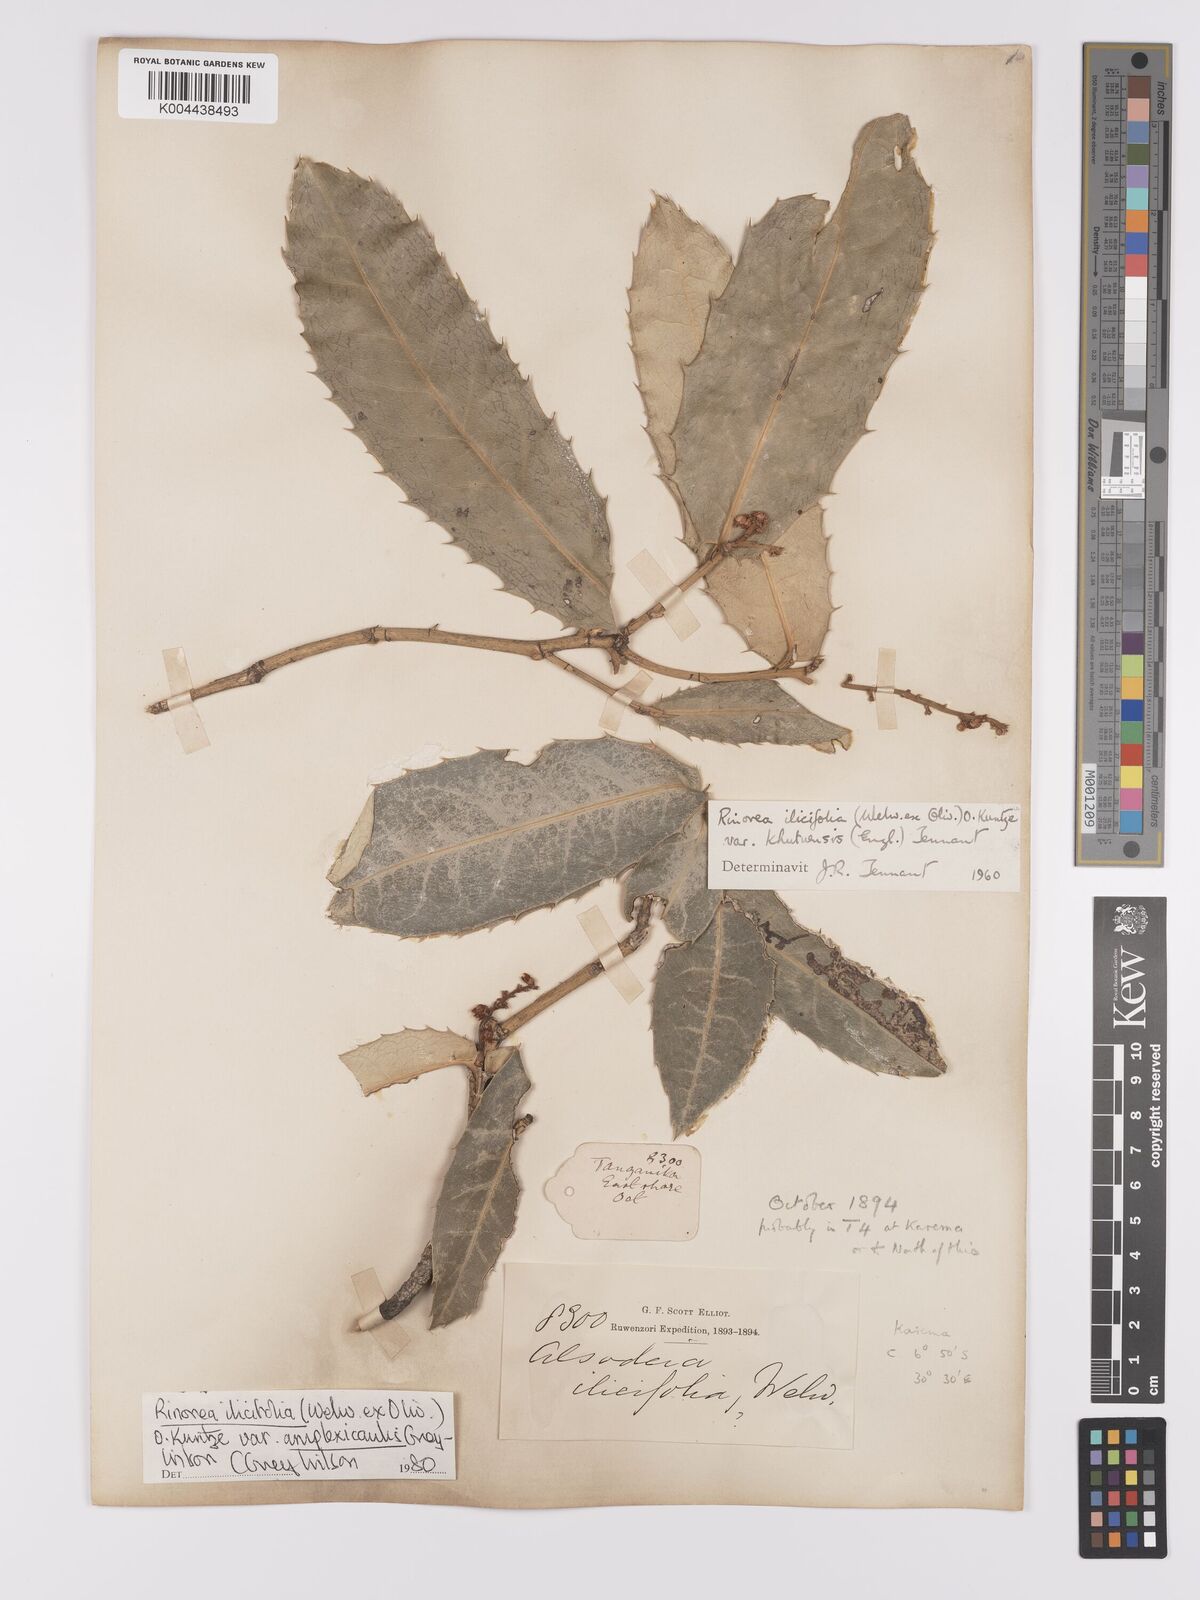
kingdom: Plantae
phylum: Tracheophyta
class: Magnoliopsida
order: Malpighiales
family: Violaceae
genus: Rinorea
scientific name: Rinorea ilicifolia
